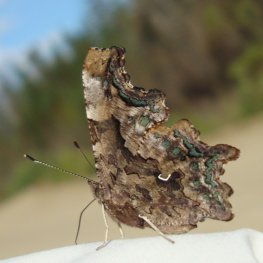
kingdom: Animalia
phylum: Arthropoda
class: Insecta
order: Lepidoptera
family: Nymphalidae
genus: Polygonia
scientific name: Polygonia faunus
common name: Green Comma
